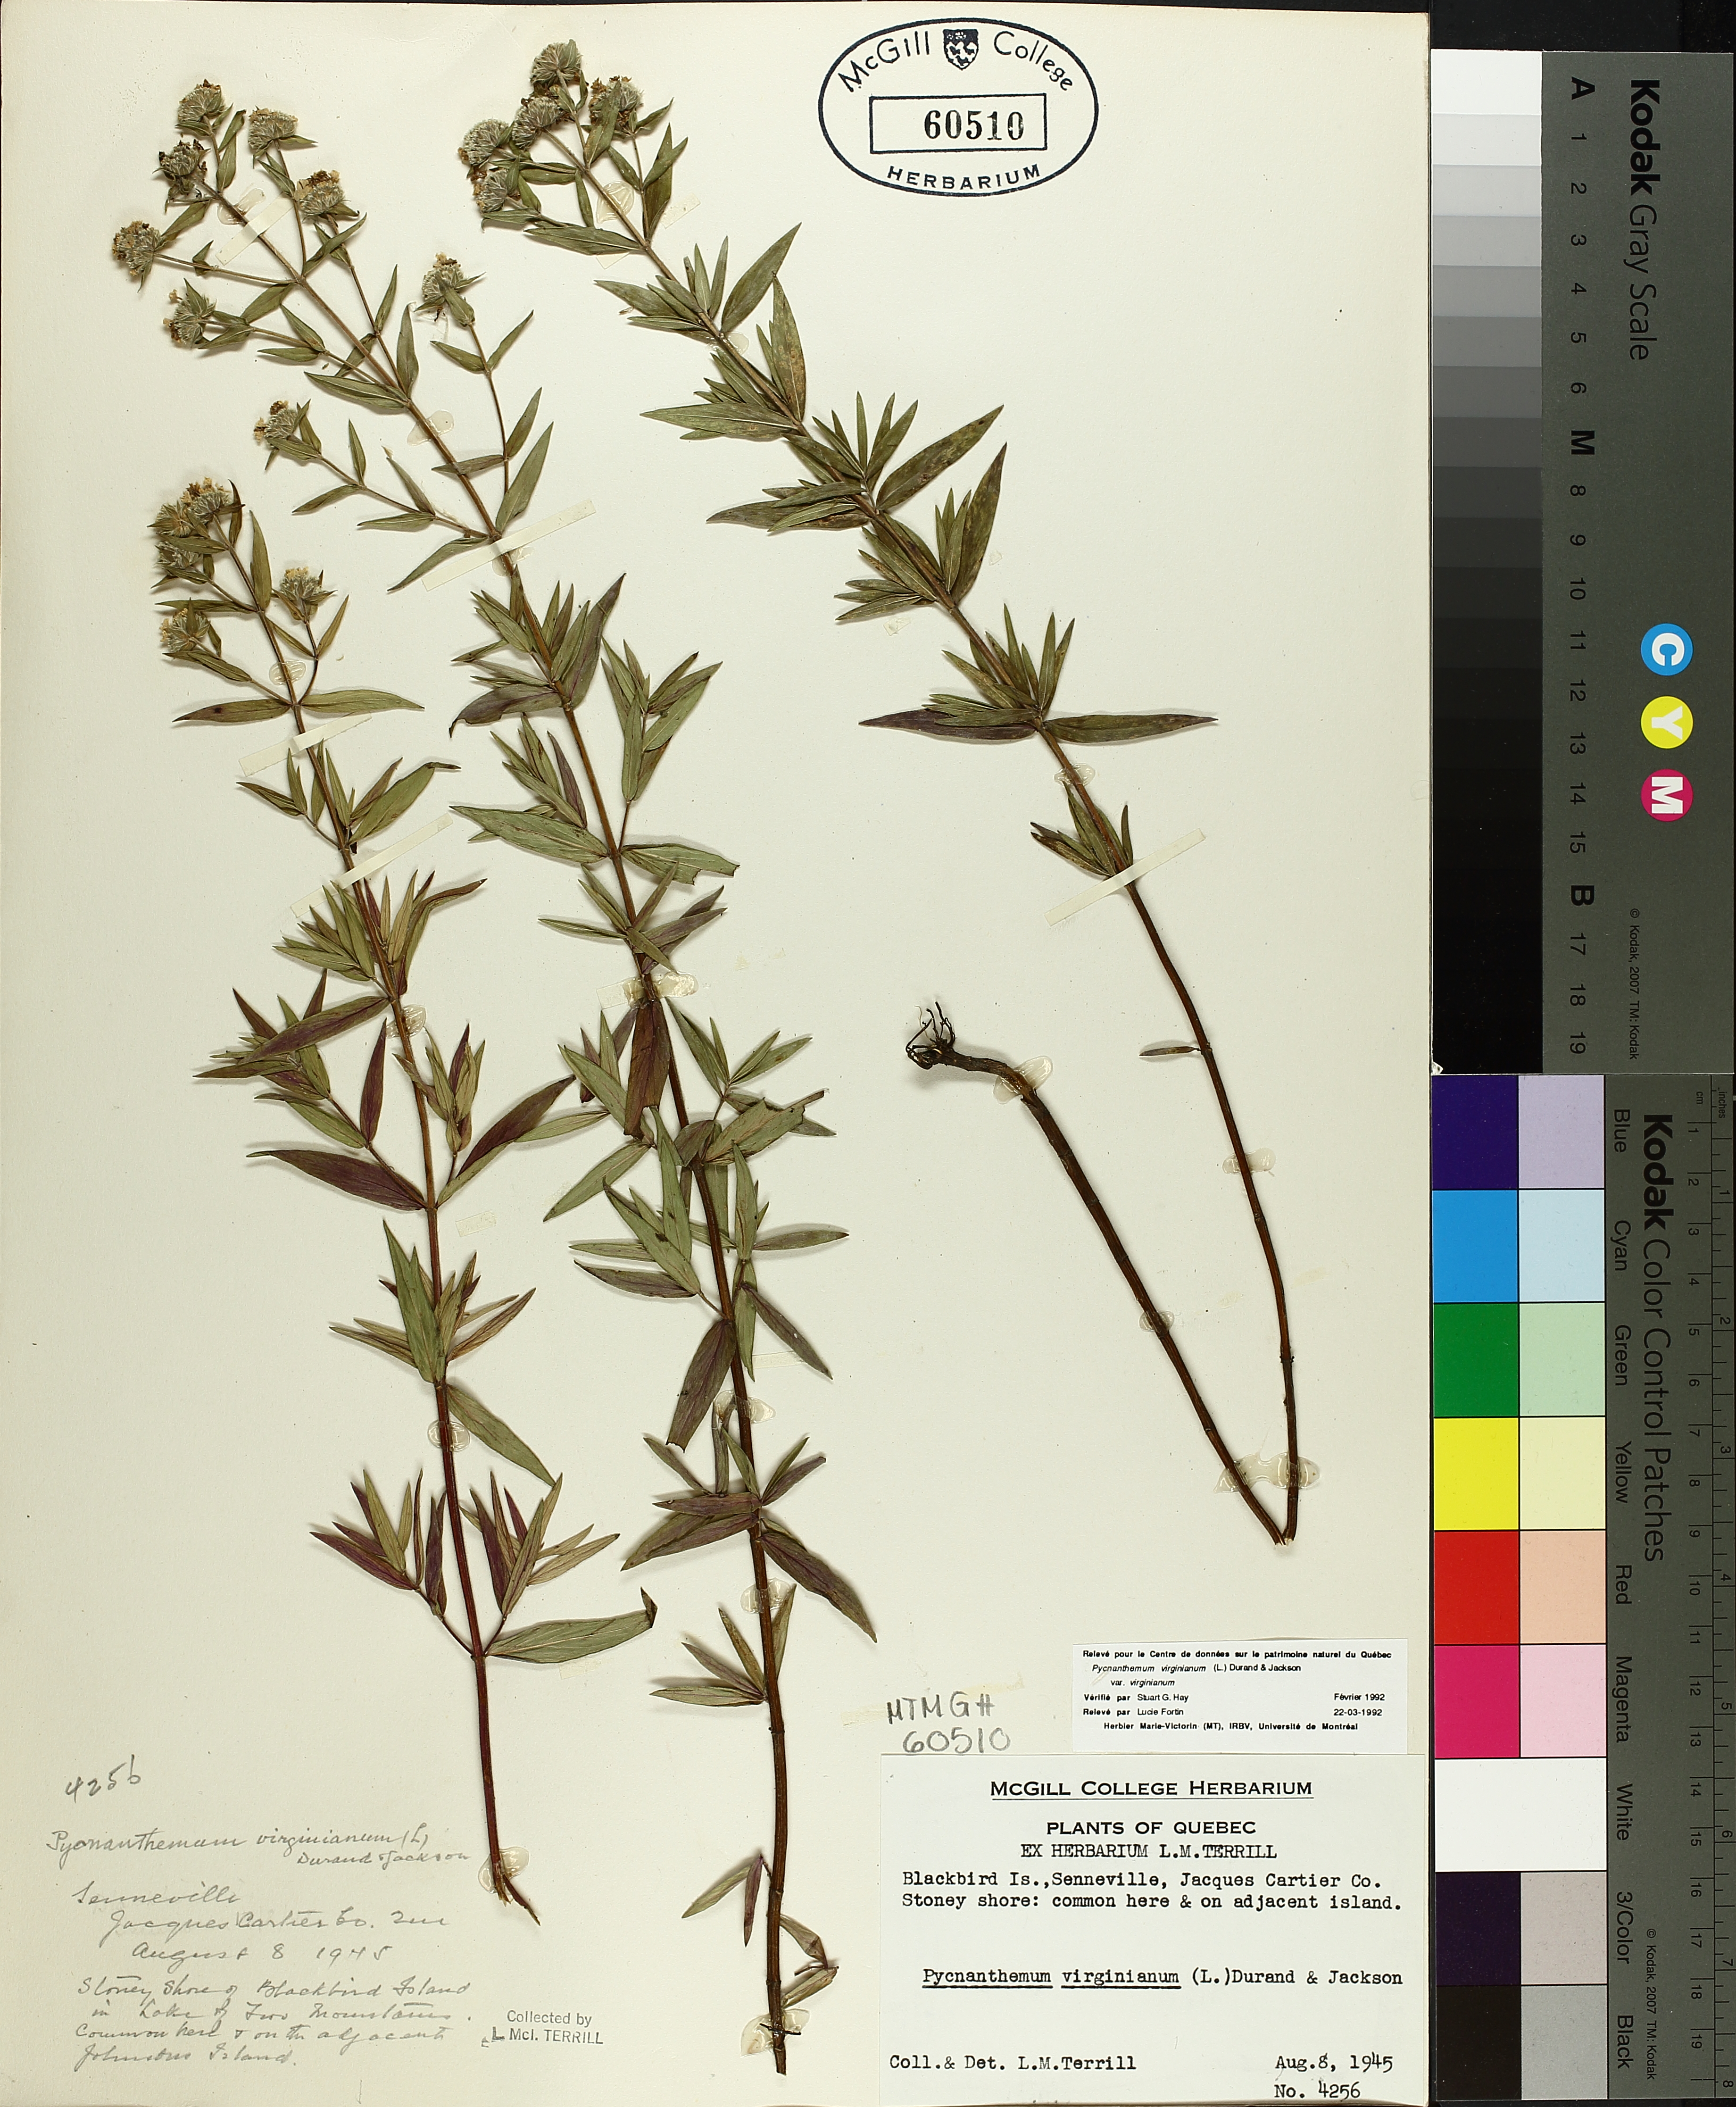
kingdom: Plantae
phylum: Tracheophyta
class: Magnoliopsida
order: Lamiales
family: Lamiaceae
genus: Pycnanthemum
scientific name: Pycnanthemum virginianum
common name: Virginia mountain-mint
